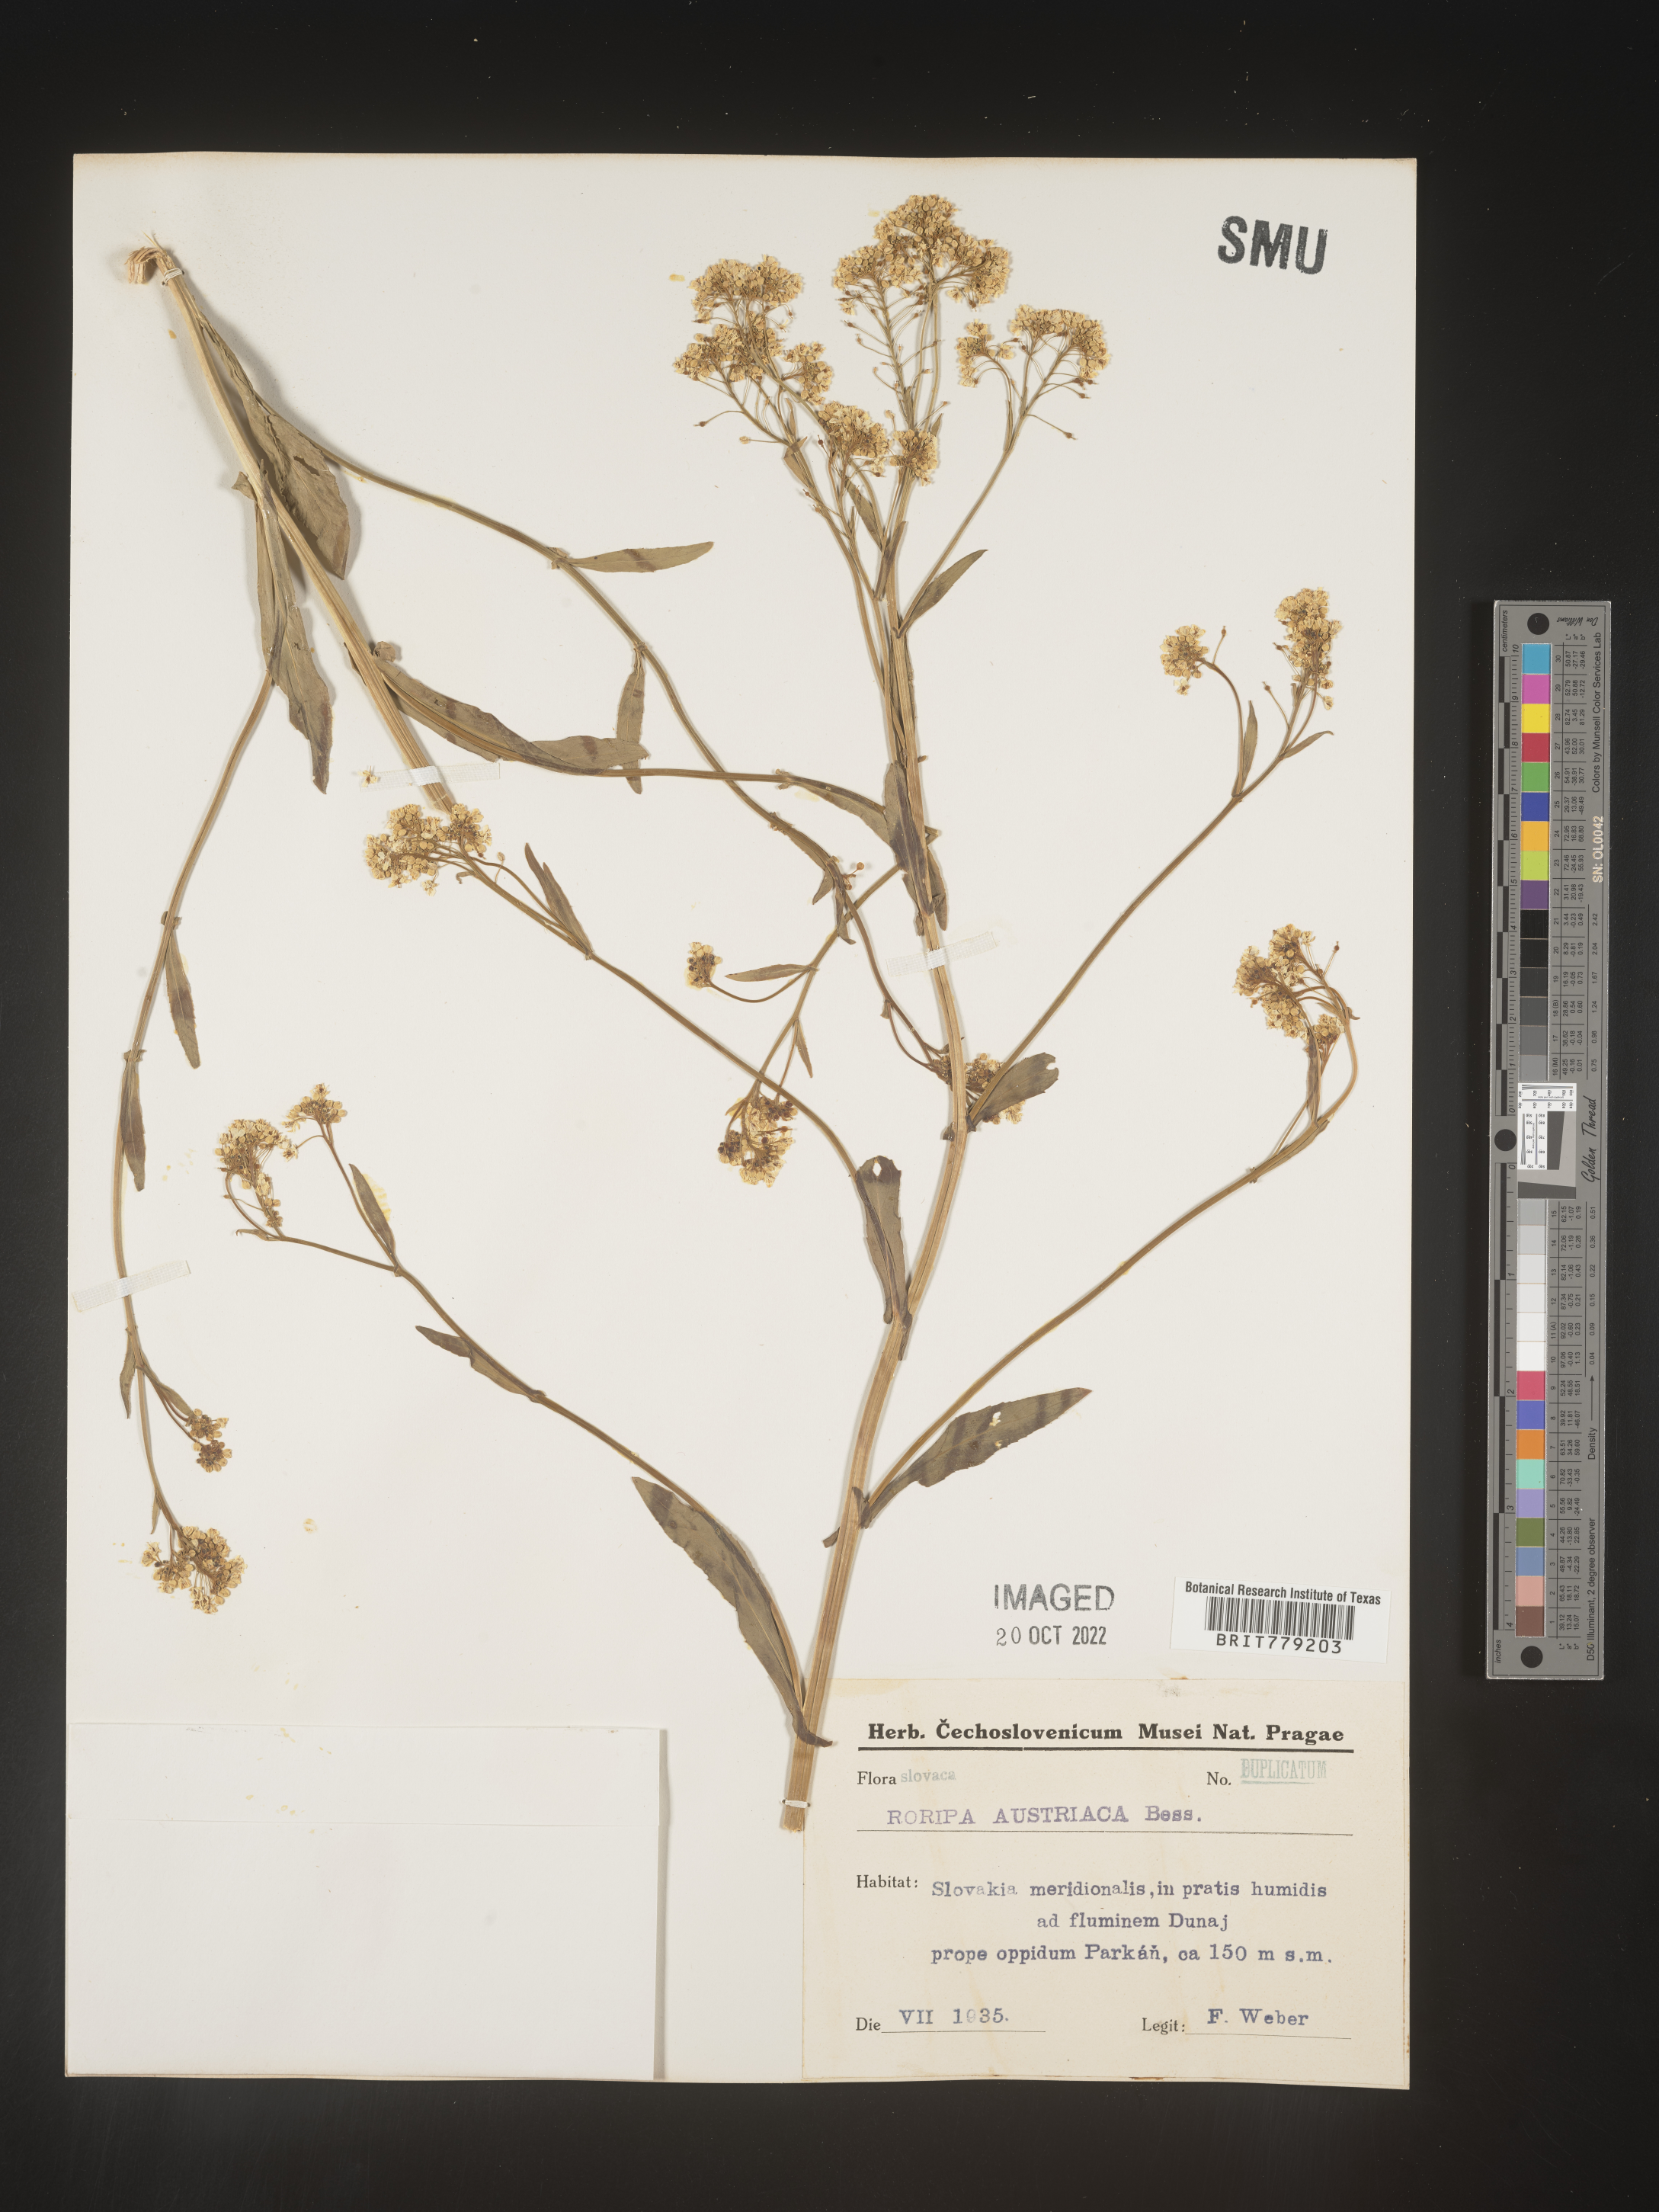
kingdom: Plantae
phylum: Tracheophyta
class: Magnoliopsida
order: Brassicales
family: Brassicaceae
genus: Rorippa
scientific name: Rorippa
